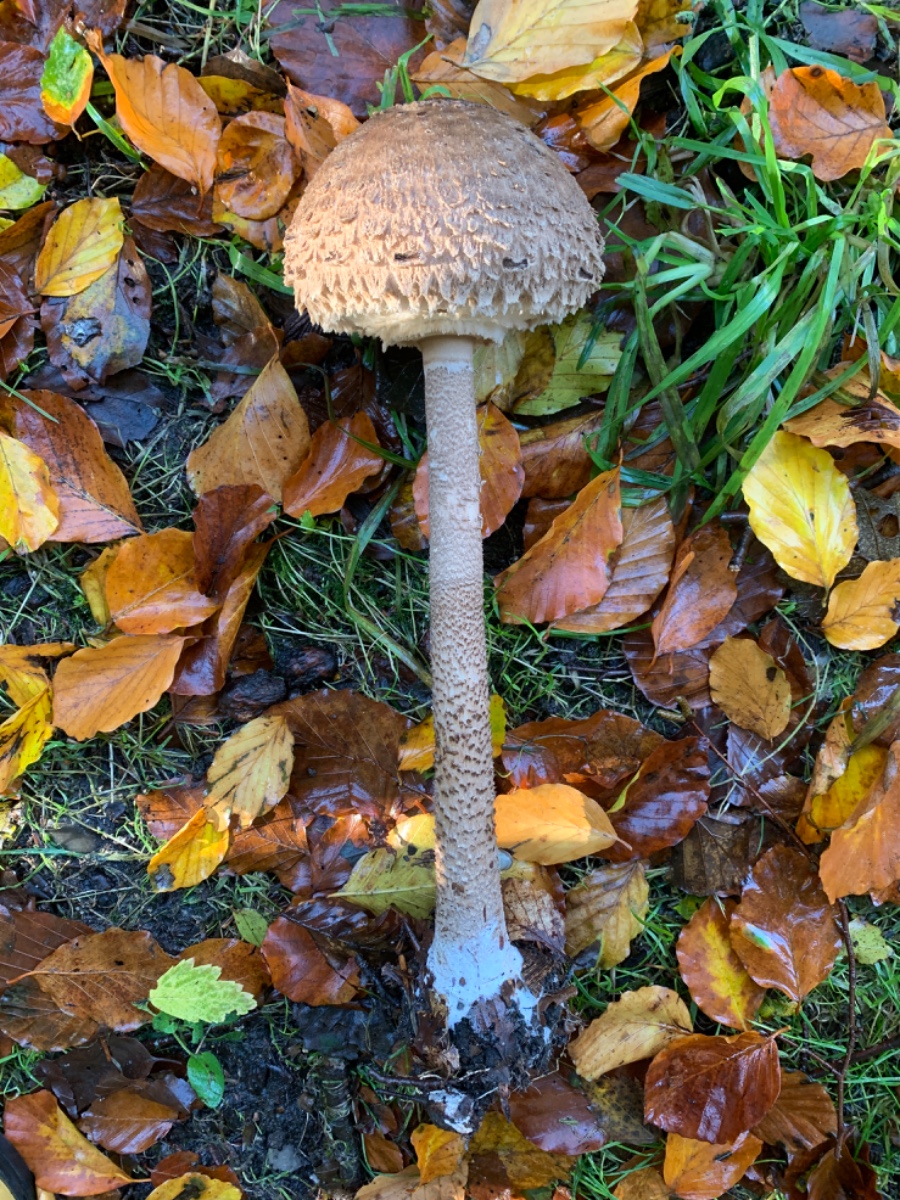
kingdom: Fungi
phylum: Basidiomycota
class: Agaricomycetes
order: Agaricales
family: Agaricaceae
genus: Macrolepiota
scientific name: Macrolepiota procera
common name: stor kæmpeparasolhat
